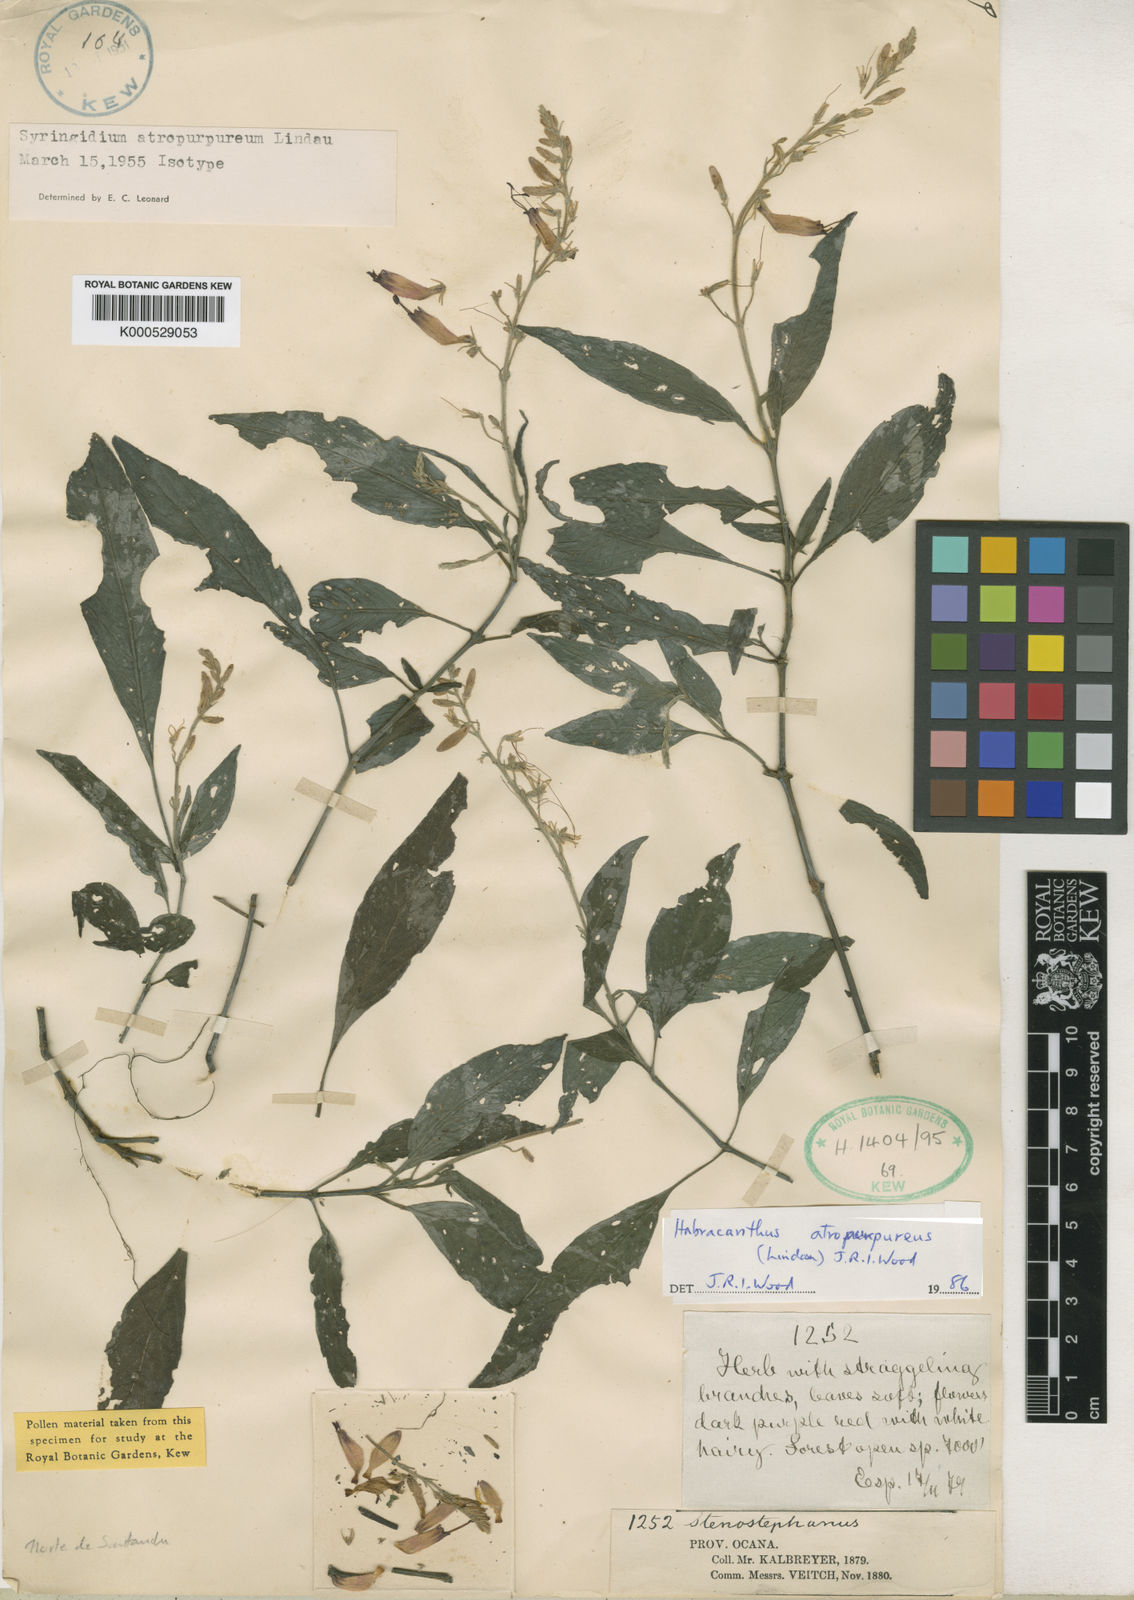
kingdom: Plantae
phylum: Tracheophyta
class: Magnoliopsida
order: Lamiales
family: Acanthaceae
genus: Stenostephanus
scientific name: Stenostephanus atropurpureus
